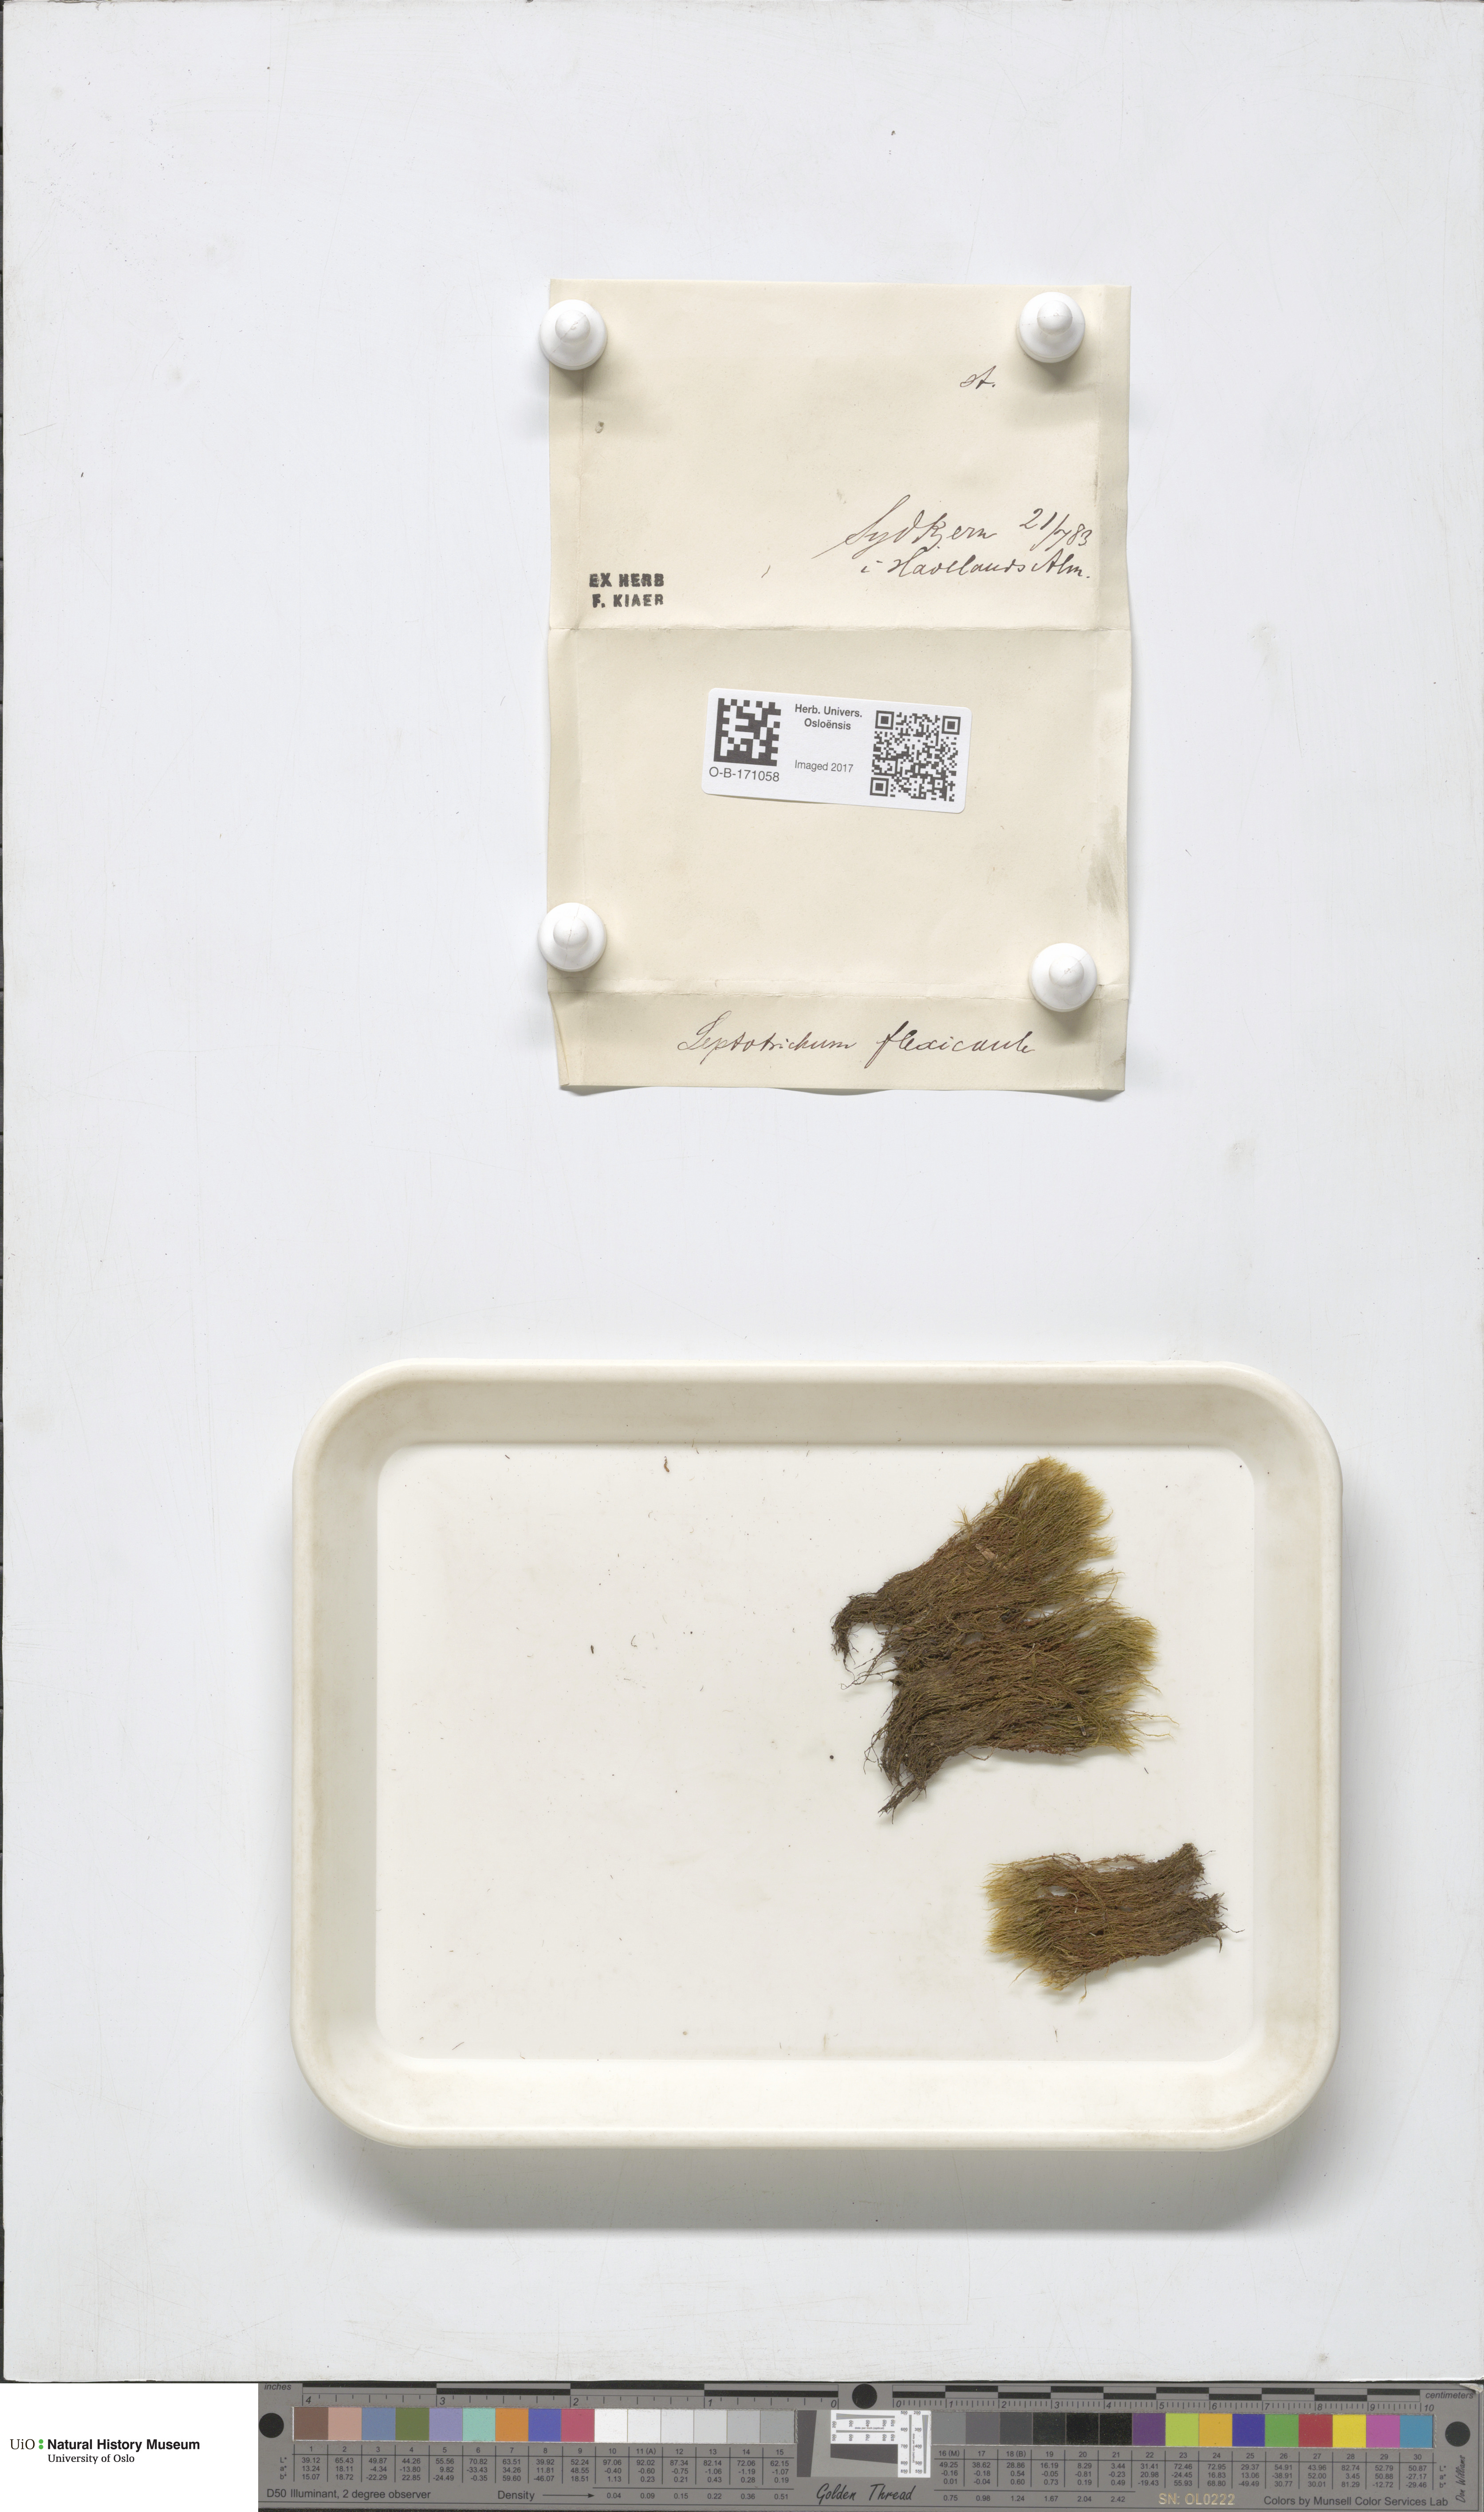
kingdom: Plantae
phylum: Bryophyta
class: Bryopsida
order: Scouleriales
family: Flexitrichaceae
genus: Flexitrichum
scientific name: Flexitrichum flexicaule
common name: Bendy ditrichum
